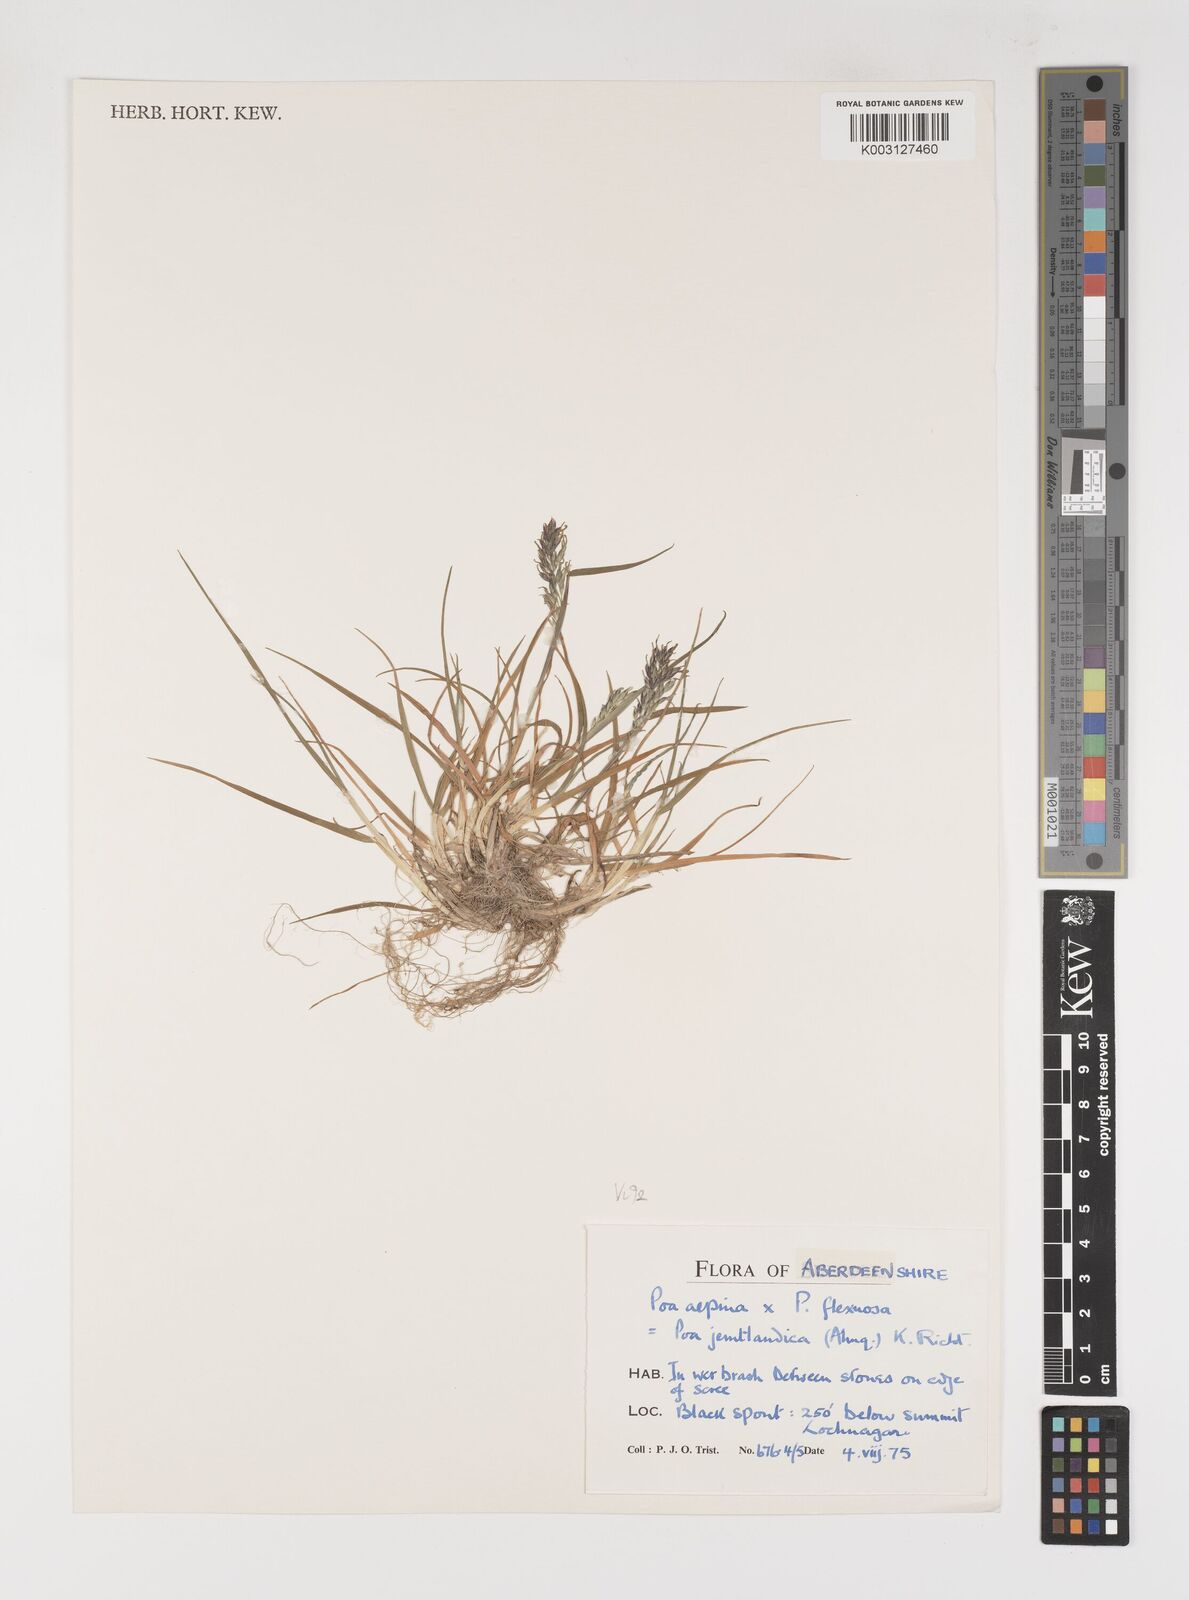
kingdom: Plantae
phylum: Tracheophyta
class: Liliopsida
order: Poales
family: Poaceae
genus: Poa
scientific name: Poa jemtlandica
